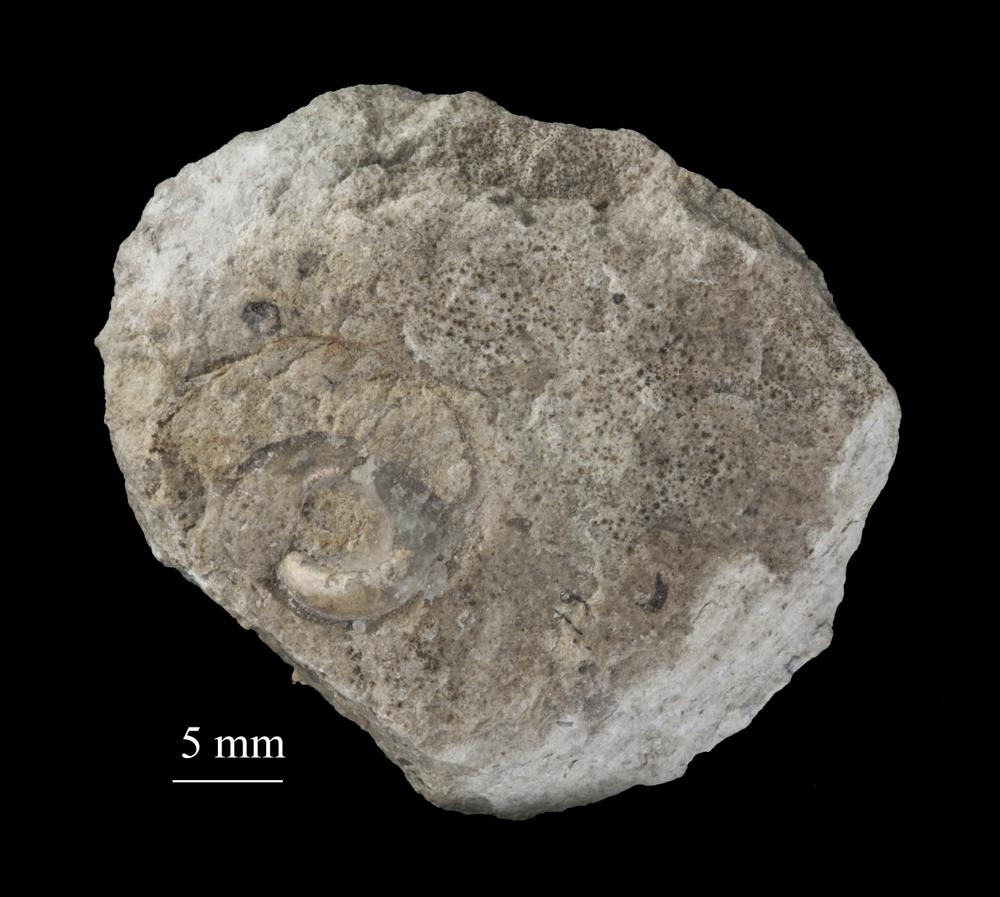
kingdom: Animalia
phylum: Mollusca
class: Gastropoda
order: Pleurotomariida
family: Phymatopleuridae
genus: Worthenia
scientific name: Worthenia
